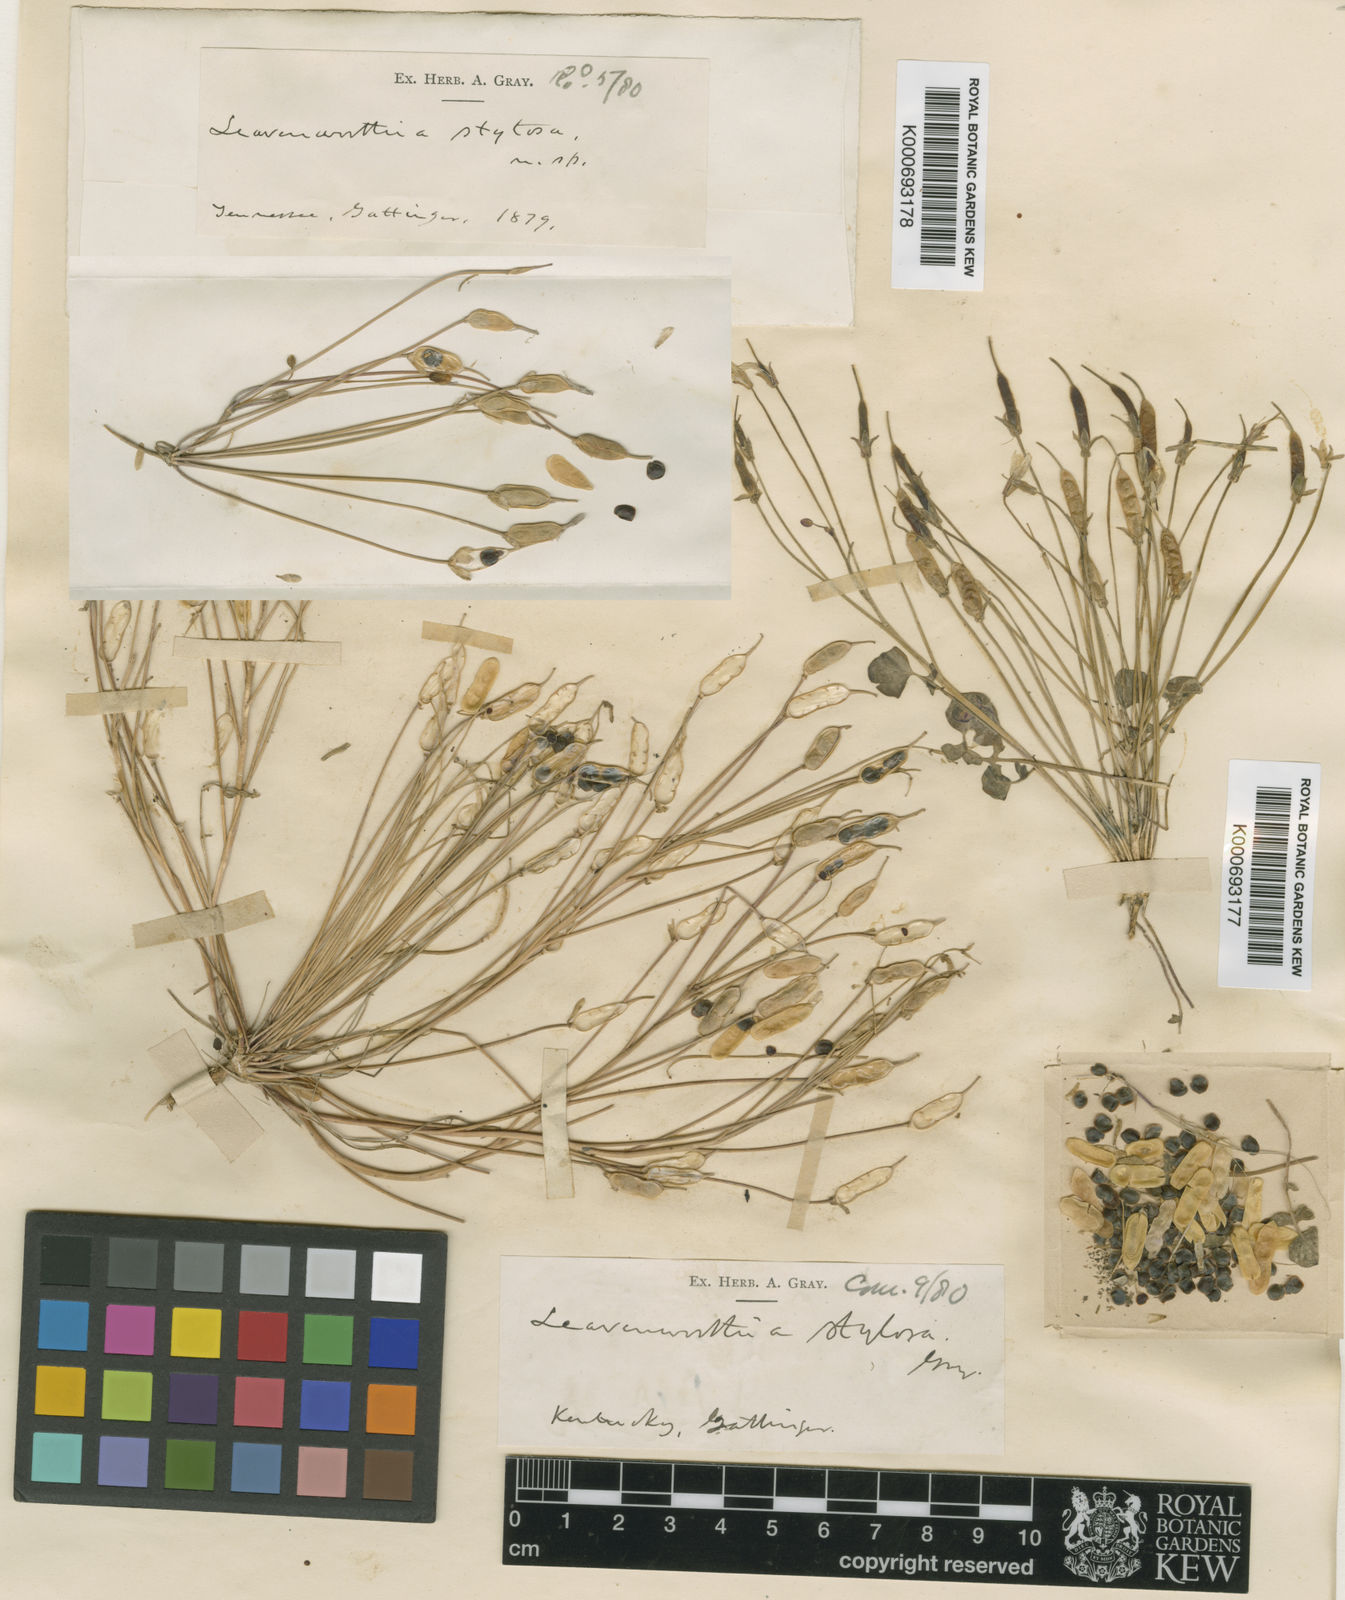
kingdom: Plantae
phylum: Tracheophyta
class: Magnoliopsida
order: Brassicales
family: Brassicaceae
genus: Leavenworthia
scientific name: Leavenworthia
